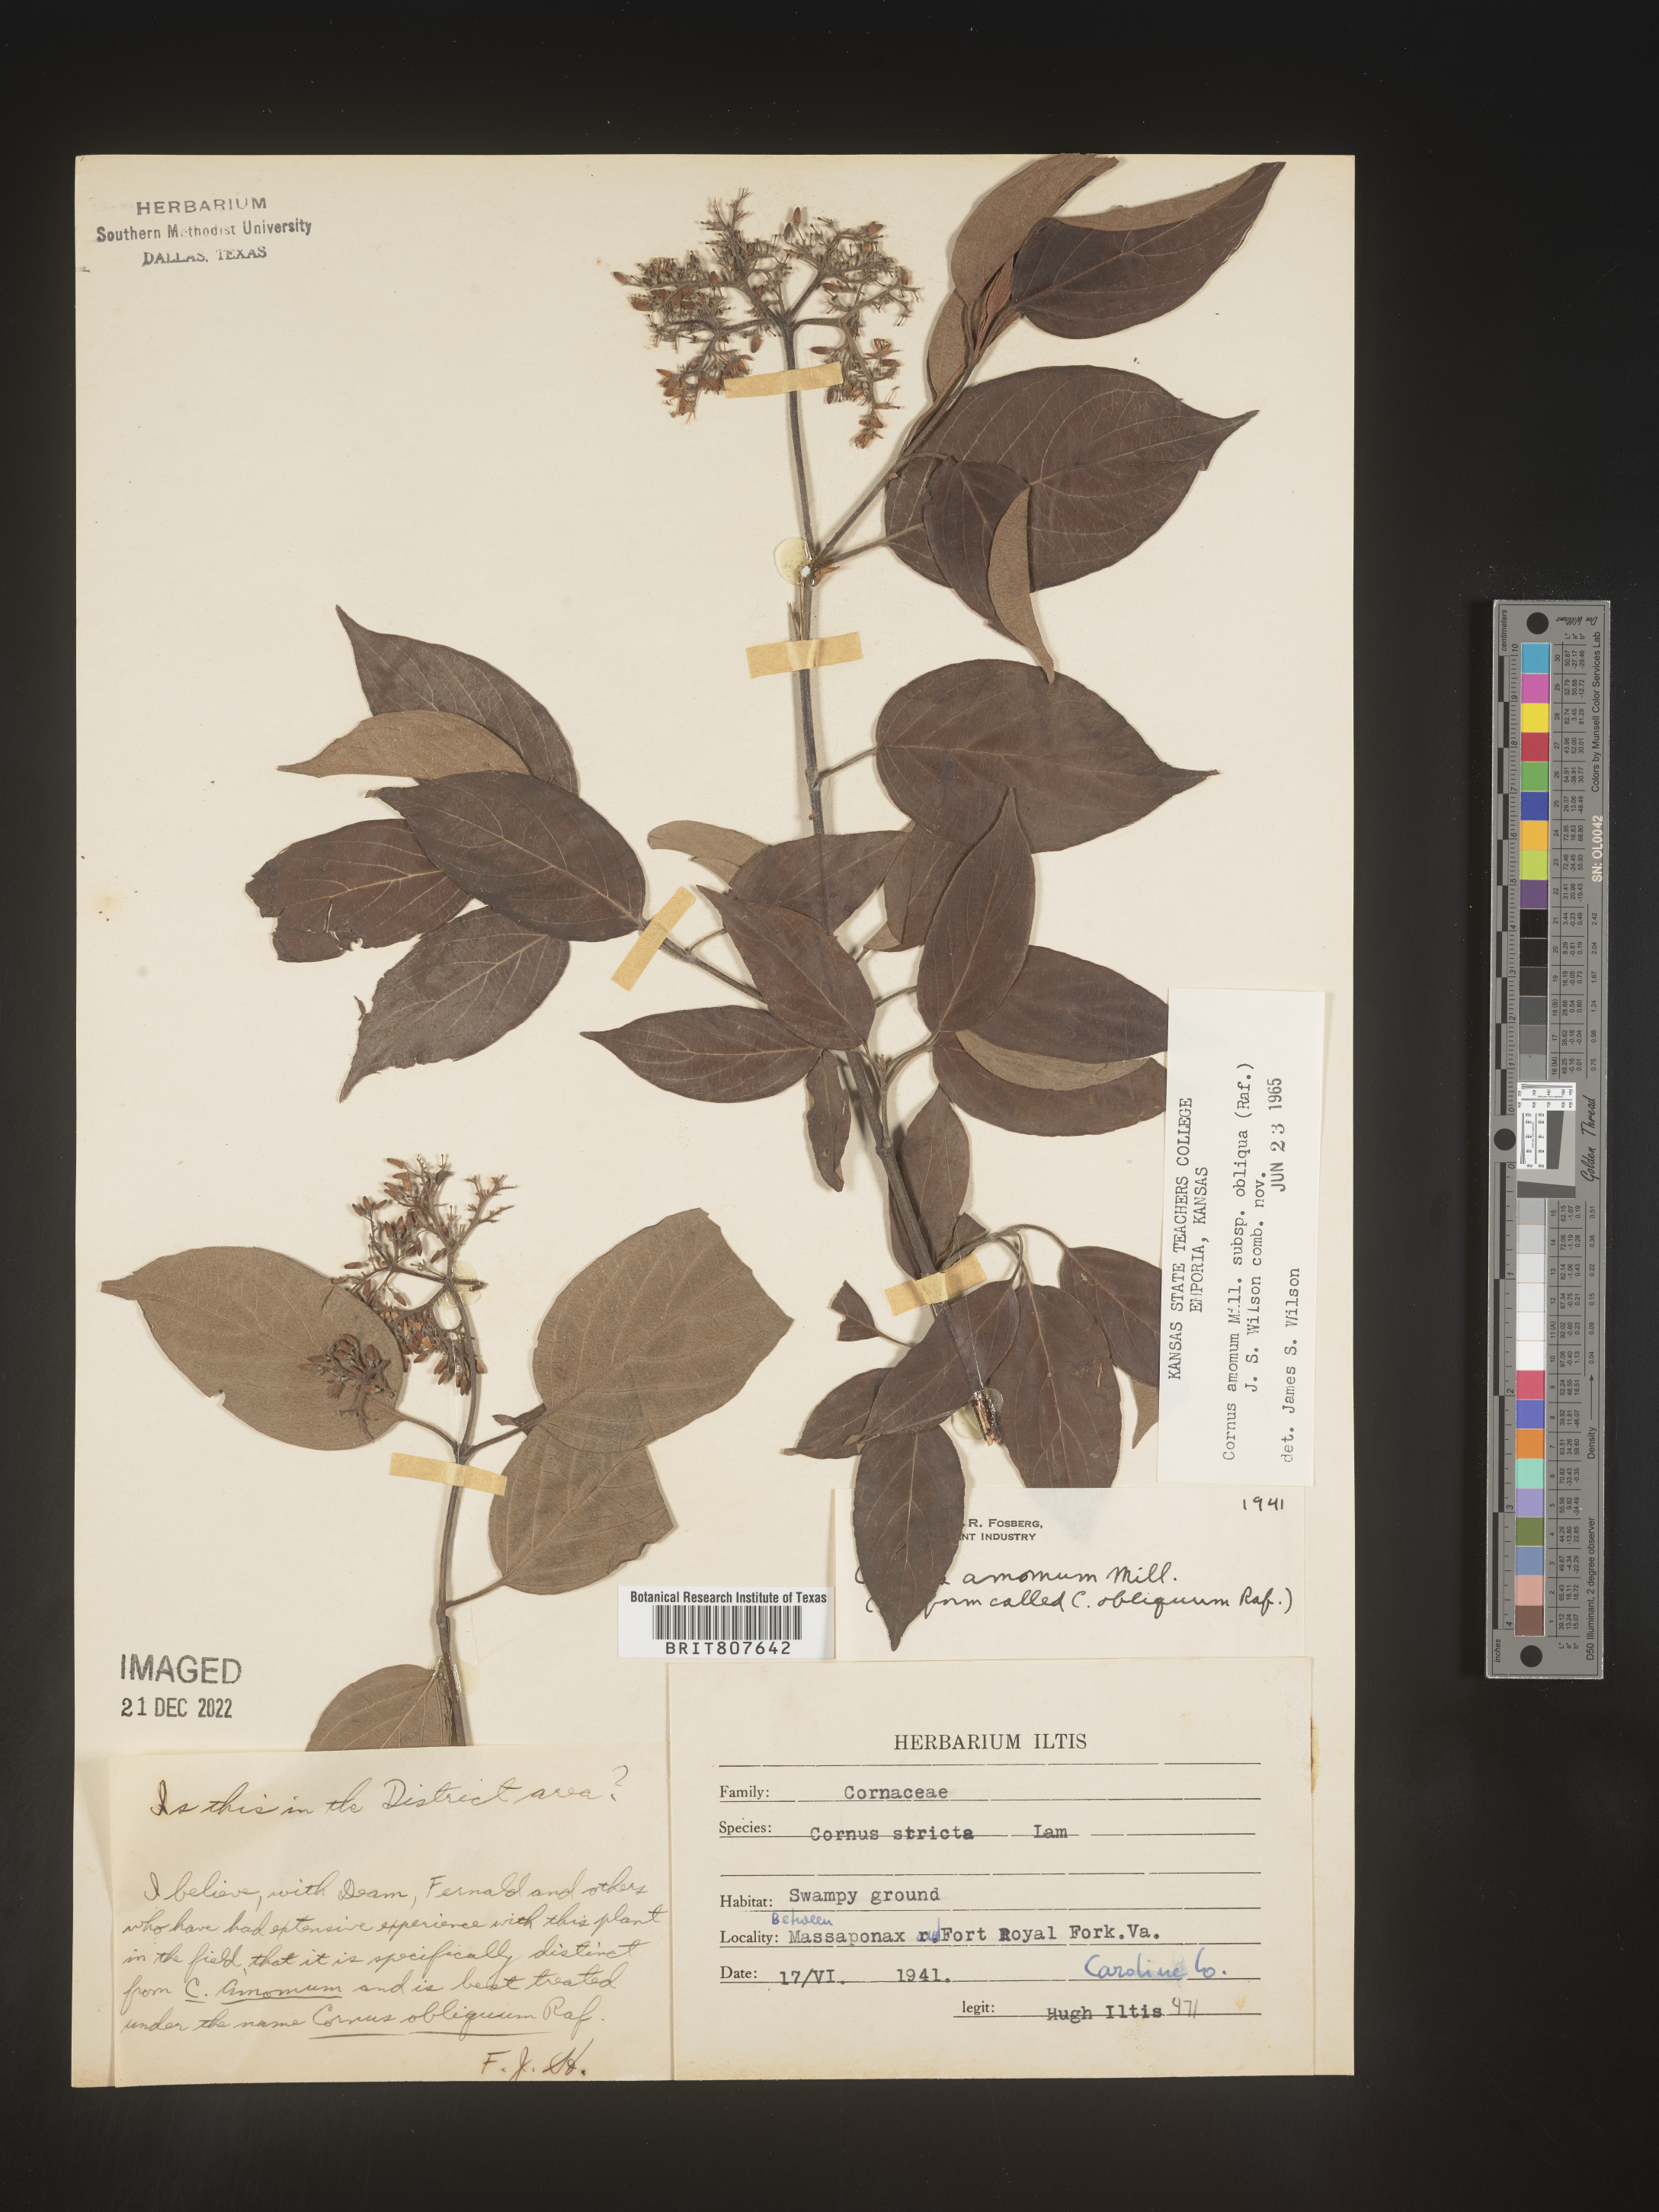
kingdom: Plantae
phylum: Tracheophyta
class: Magnoliopsida
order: Cornales
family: Cornaceae
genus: Cornus
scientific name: Cornus obliqua
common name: Pale dogwood
